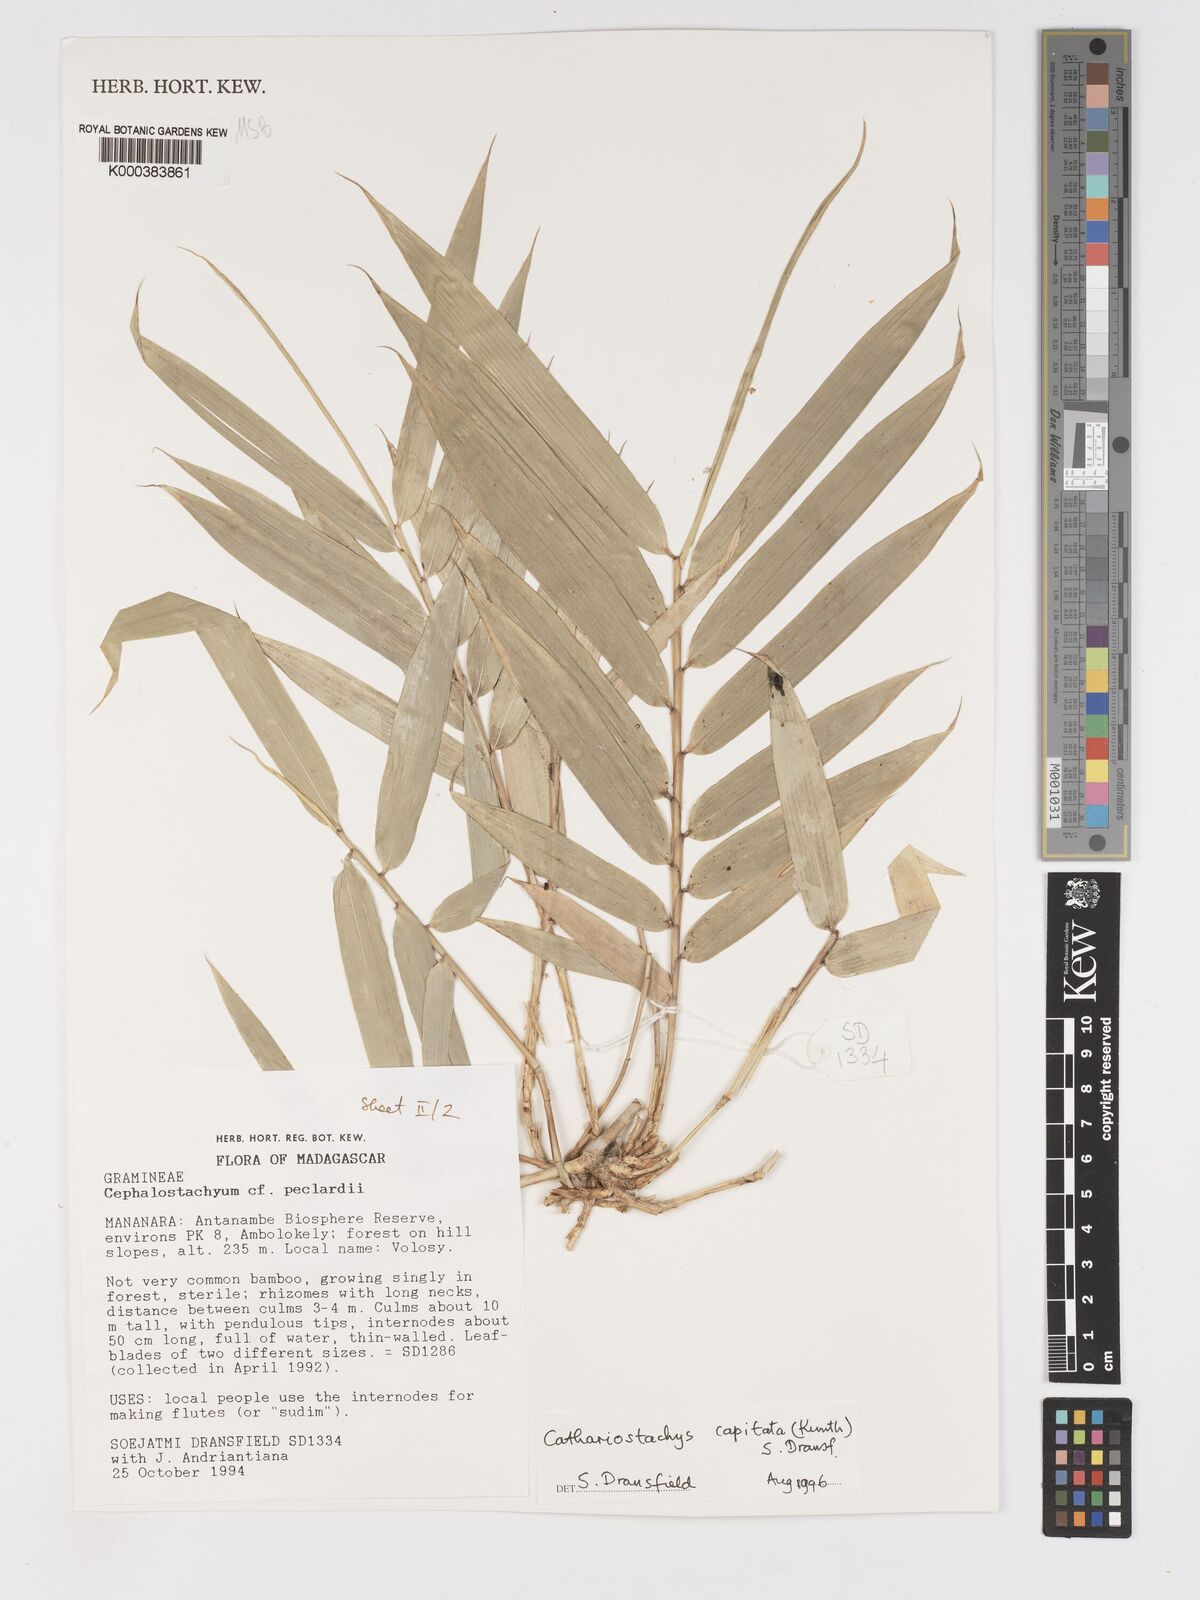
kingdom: Plantae
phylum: Tracheophyta
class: Liliopsida
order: Poales
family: Poaceae
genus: Cathariostachys
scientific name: Cathariostachys capitata
